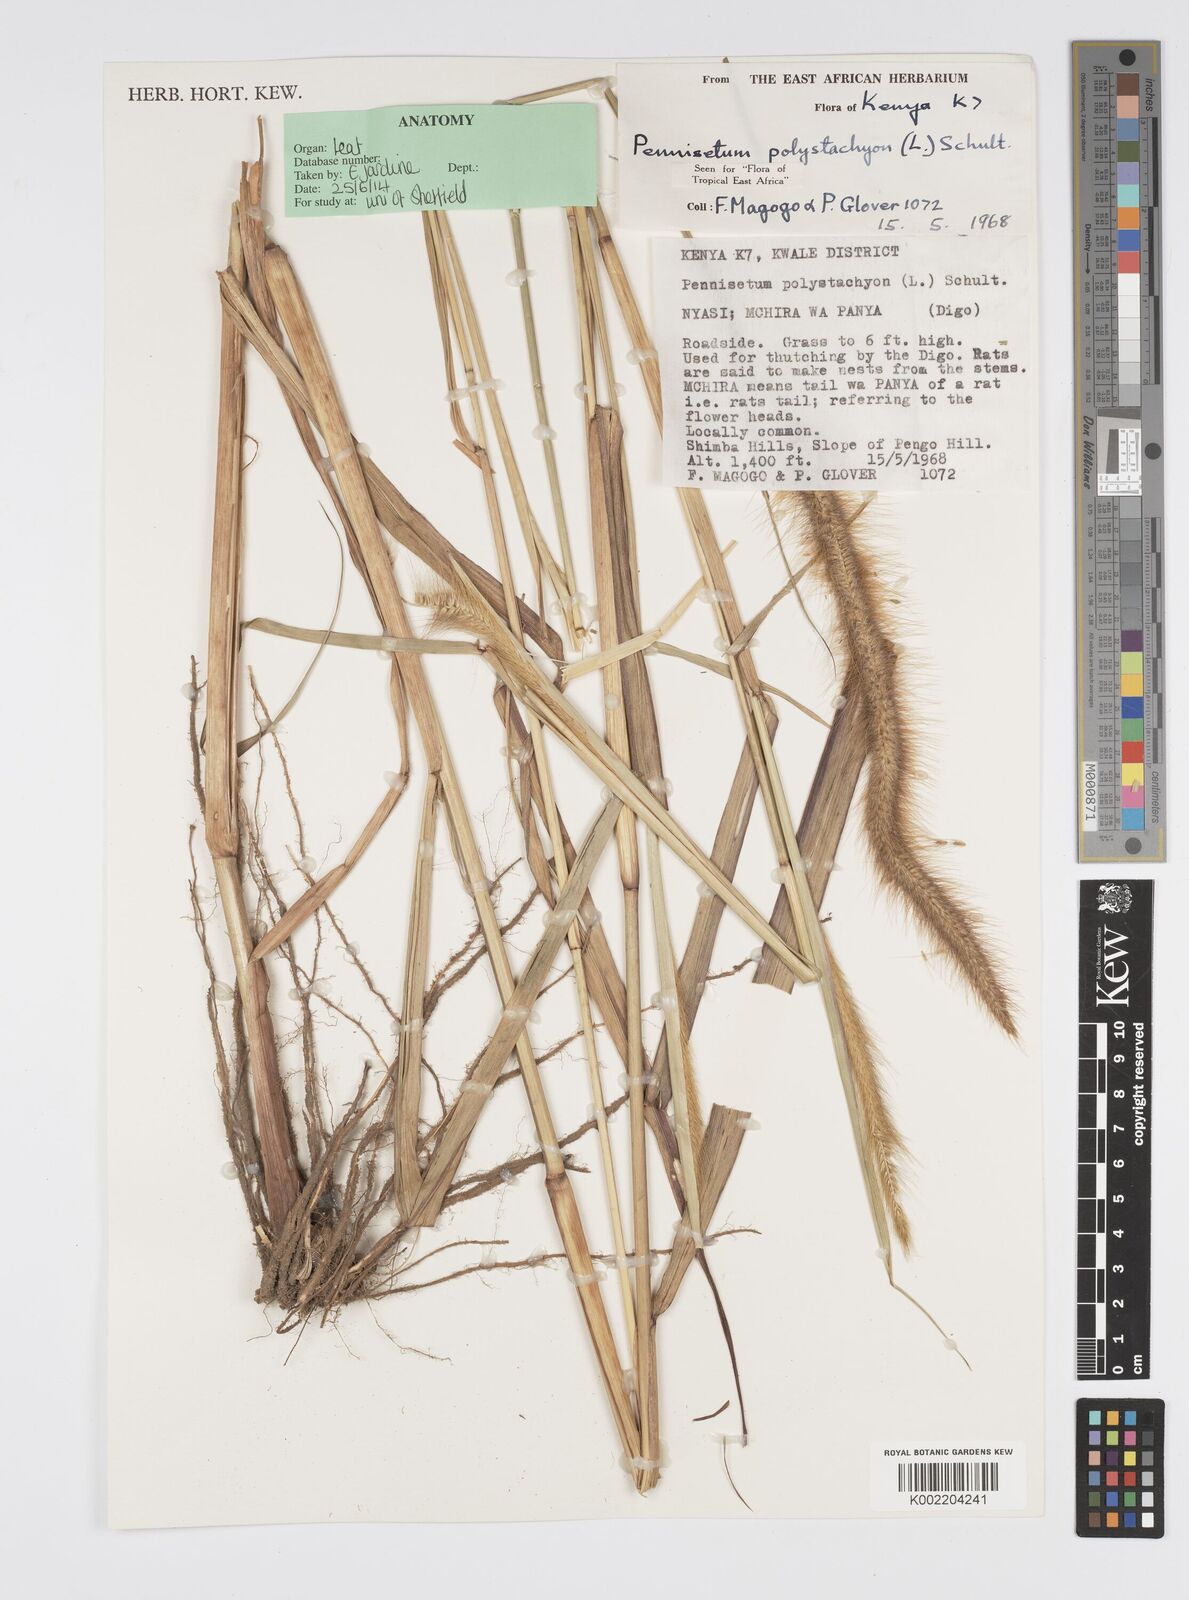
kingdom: Plantae
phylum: Tracheophyta
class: Liliopsida
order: Poales
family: Poaceae
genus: Setaria
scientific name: Setaria parviflora
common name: Knotroot bristle-grass
